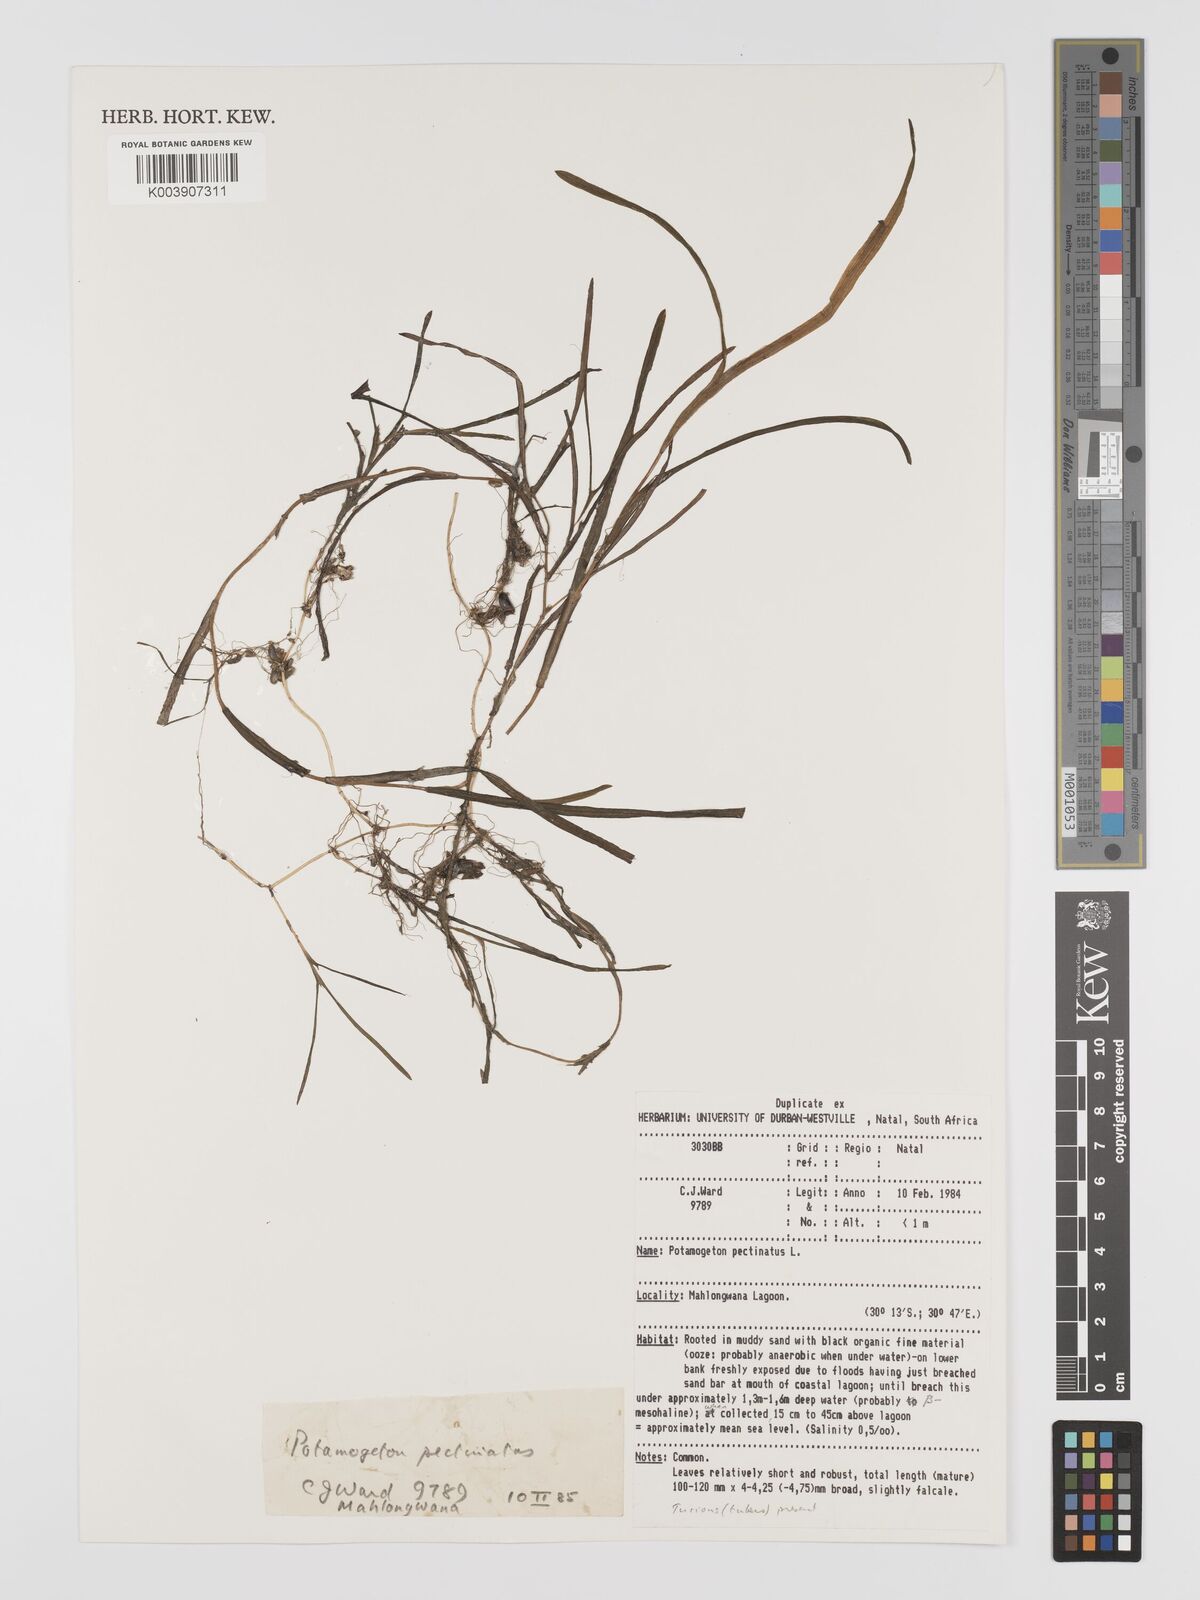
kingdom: Plantae
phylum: Tracheophyta
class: Liliopsida
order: Alismatales
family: Potamogetonaceae
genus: Stuckenia
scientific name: Stuckenia pectinata
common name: Sago pondweed
